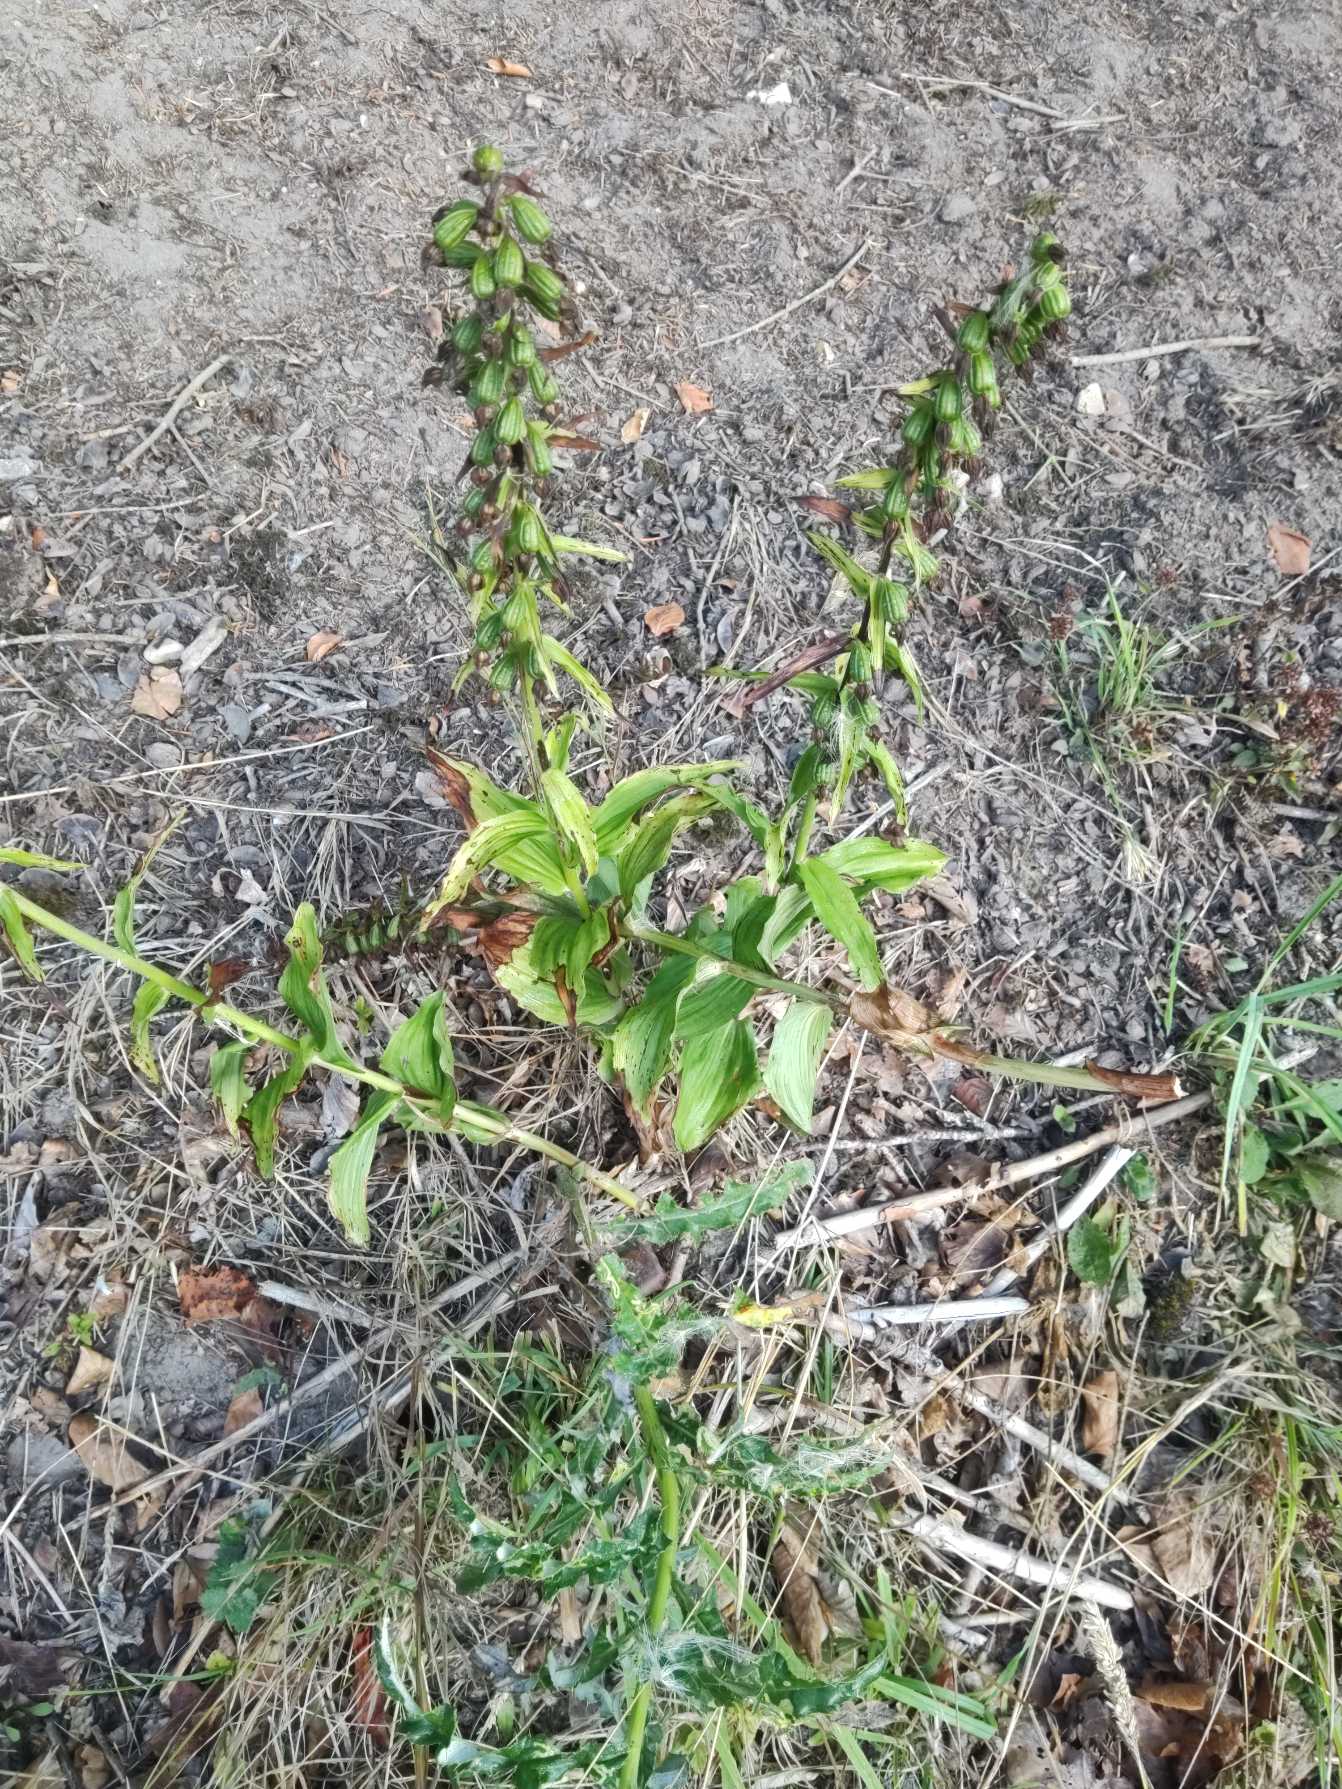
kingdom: Plantae
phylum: Tracheophyta
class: Liliopsida
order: Asparagales
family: Orchidaceae
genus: Epipactis
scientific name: Epipactis helleborine
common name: Skov-hullæbe
